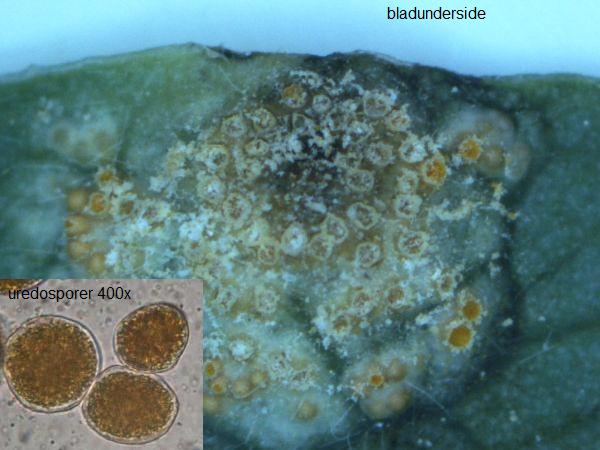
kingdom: Fungi
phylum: Basidiomycota
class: Pucciniomycetes
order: Pucciniales
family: Pucciniaceae
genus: Puccinia
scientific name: Puccinia festucae
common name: gedeblad-tvecellerust
